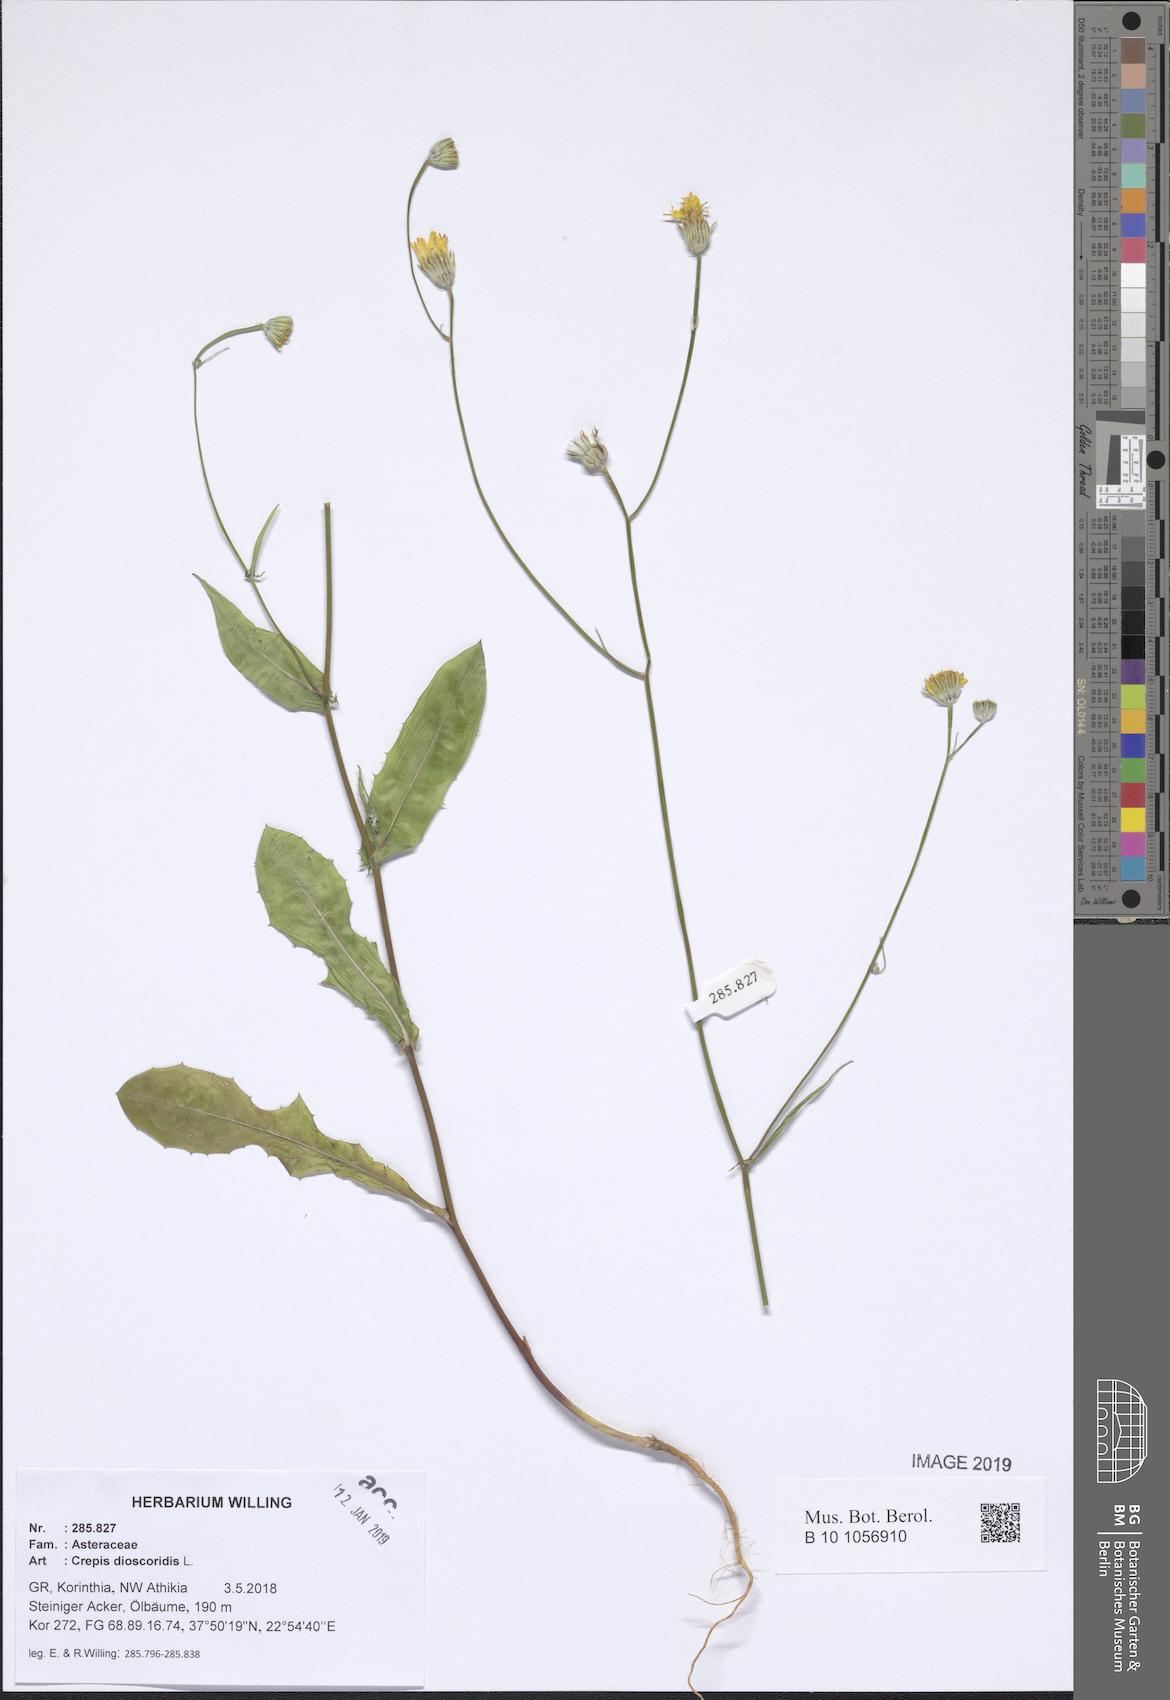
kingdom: Plantae
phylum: Tracheophyta
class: Magnoliopsida
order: Asterales
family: Asteraceae
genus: Crepis
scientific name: Crepis dioscoridis
